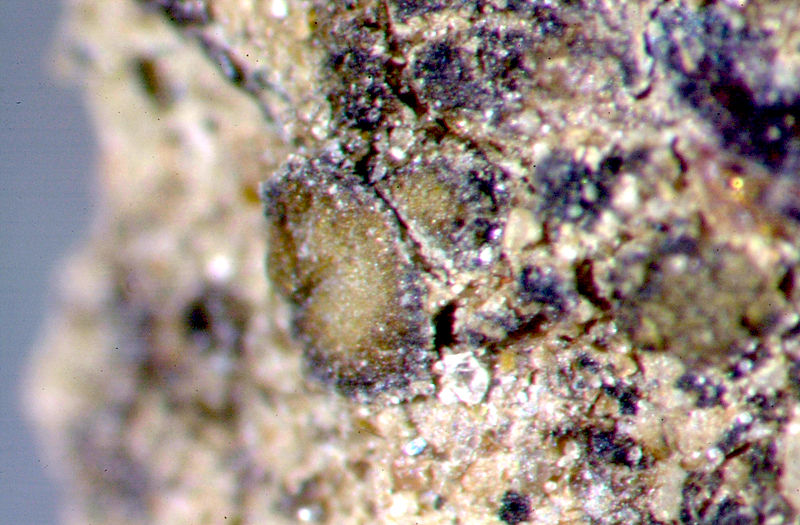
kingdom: Fungi
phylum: Ascomycota
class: Lichinomycetes
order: Lichinales
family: Lichinaceae
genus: Heppia
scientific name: Heppia despreauxii
